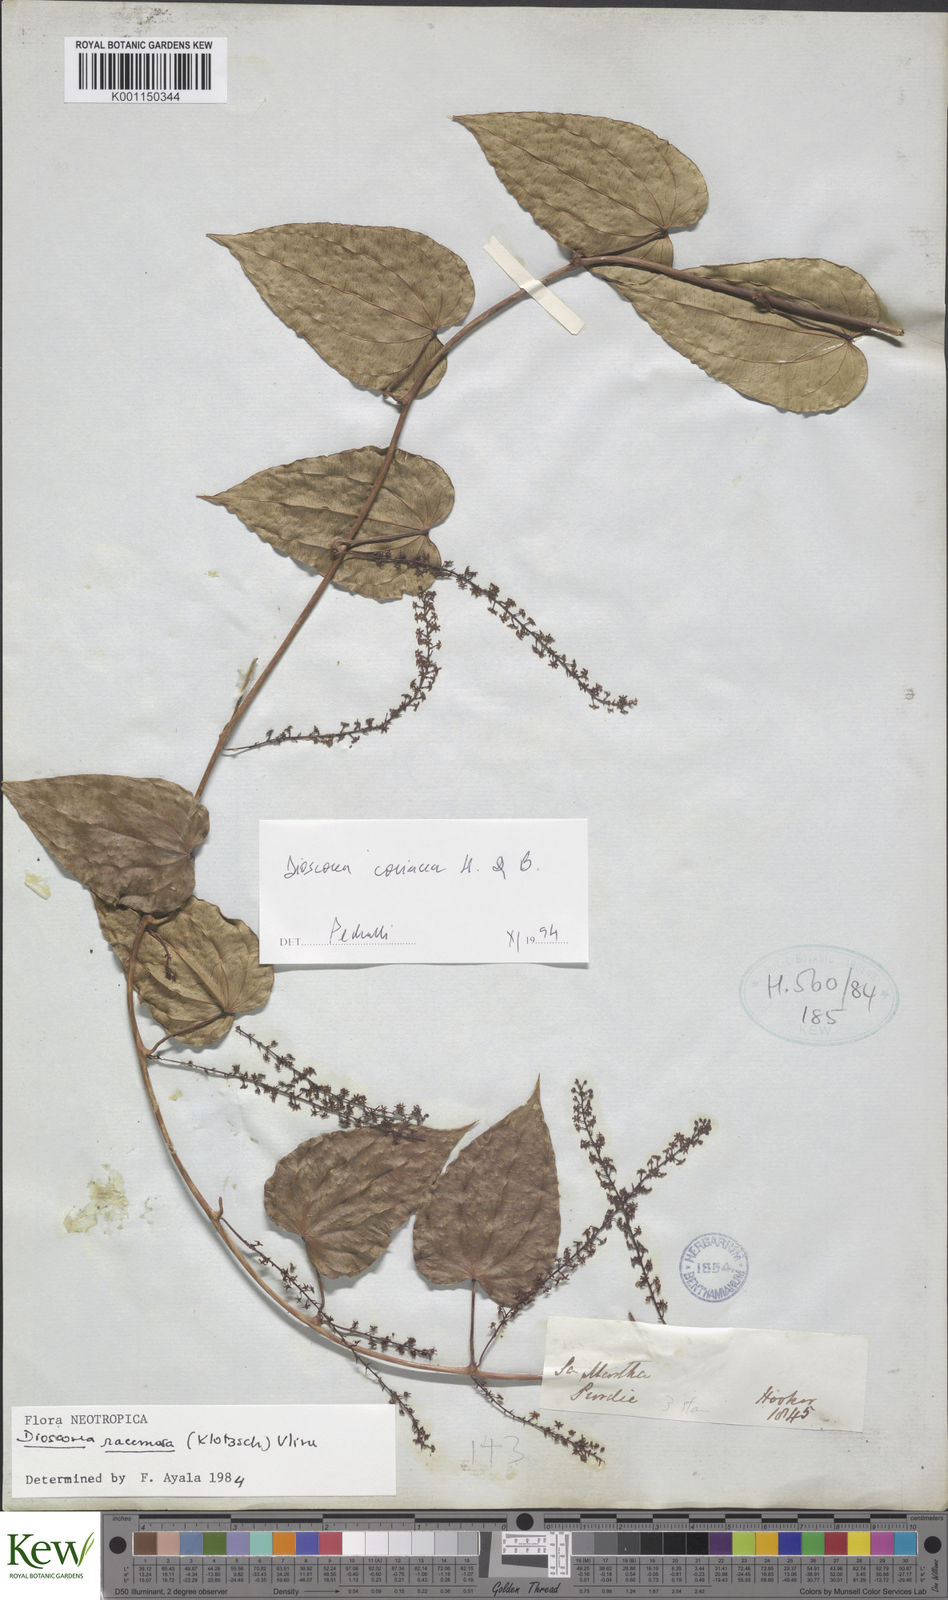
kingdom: Plantae
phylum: Tracheophyta
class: Liliopsida
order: Dioscoreales
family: Dioscoreaceae
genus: Dioscorea
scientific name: Dioscorea
